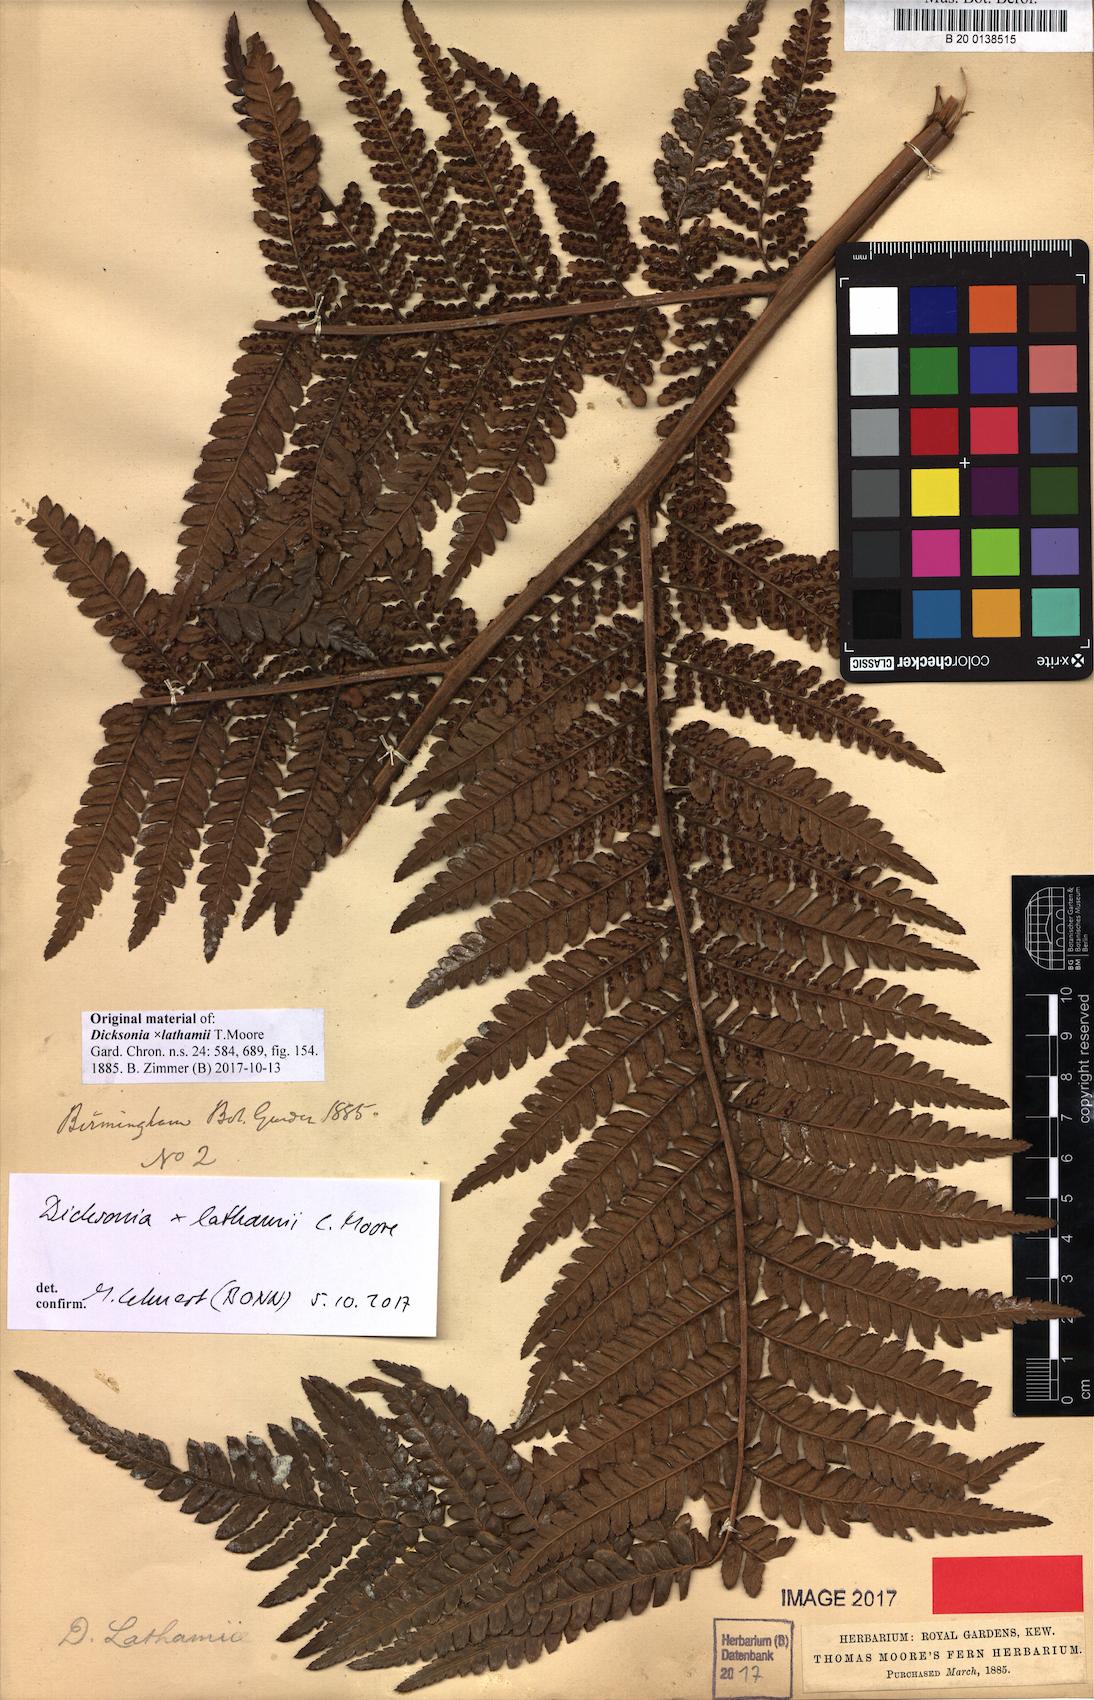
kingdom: Plantae
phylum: Tracheophyta
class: Polypodiopsida
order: Cyatheales
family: Dicksoniaceae
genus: Dicksonia
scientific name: Dicksonia lathamii
